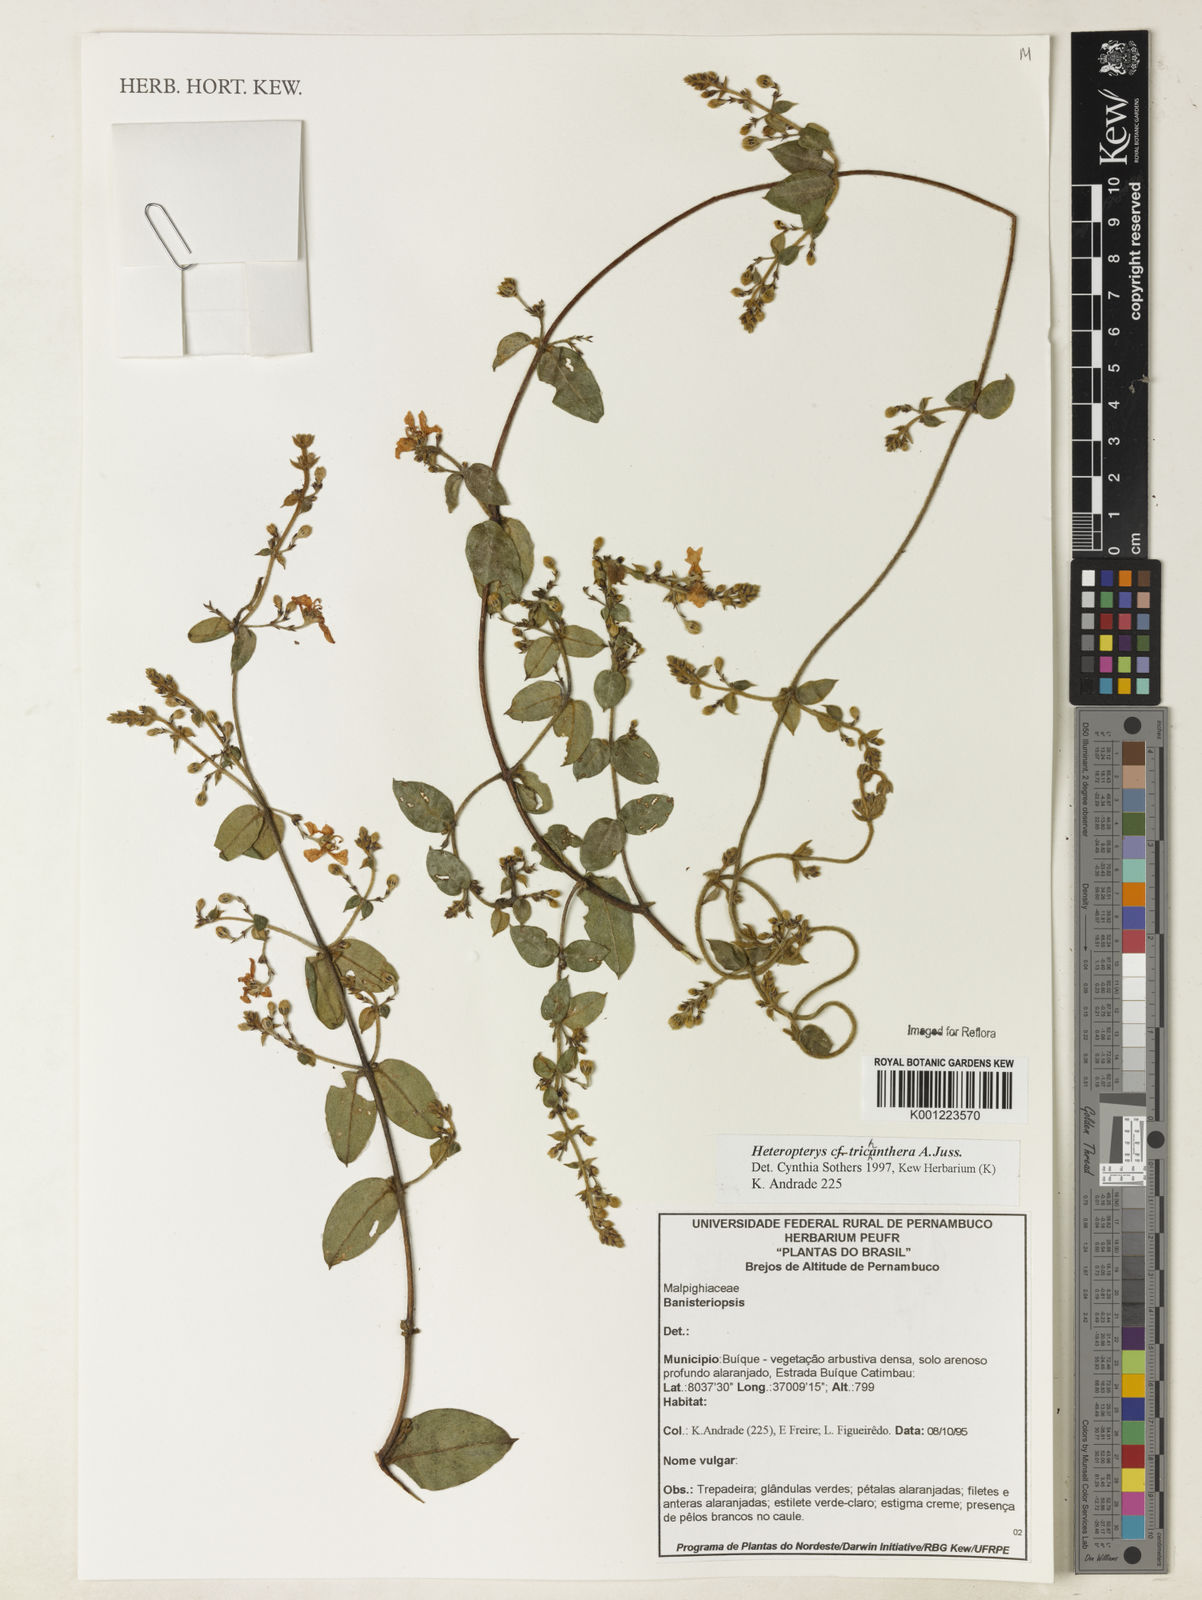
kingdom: Plantae
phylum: Tracheophyta
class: Magnoliopsida
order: Malpighiales
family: Malpighiaceae
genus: Heteropterys
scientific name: Heteropterys trichanthera
